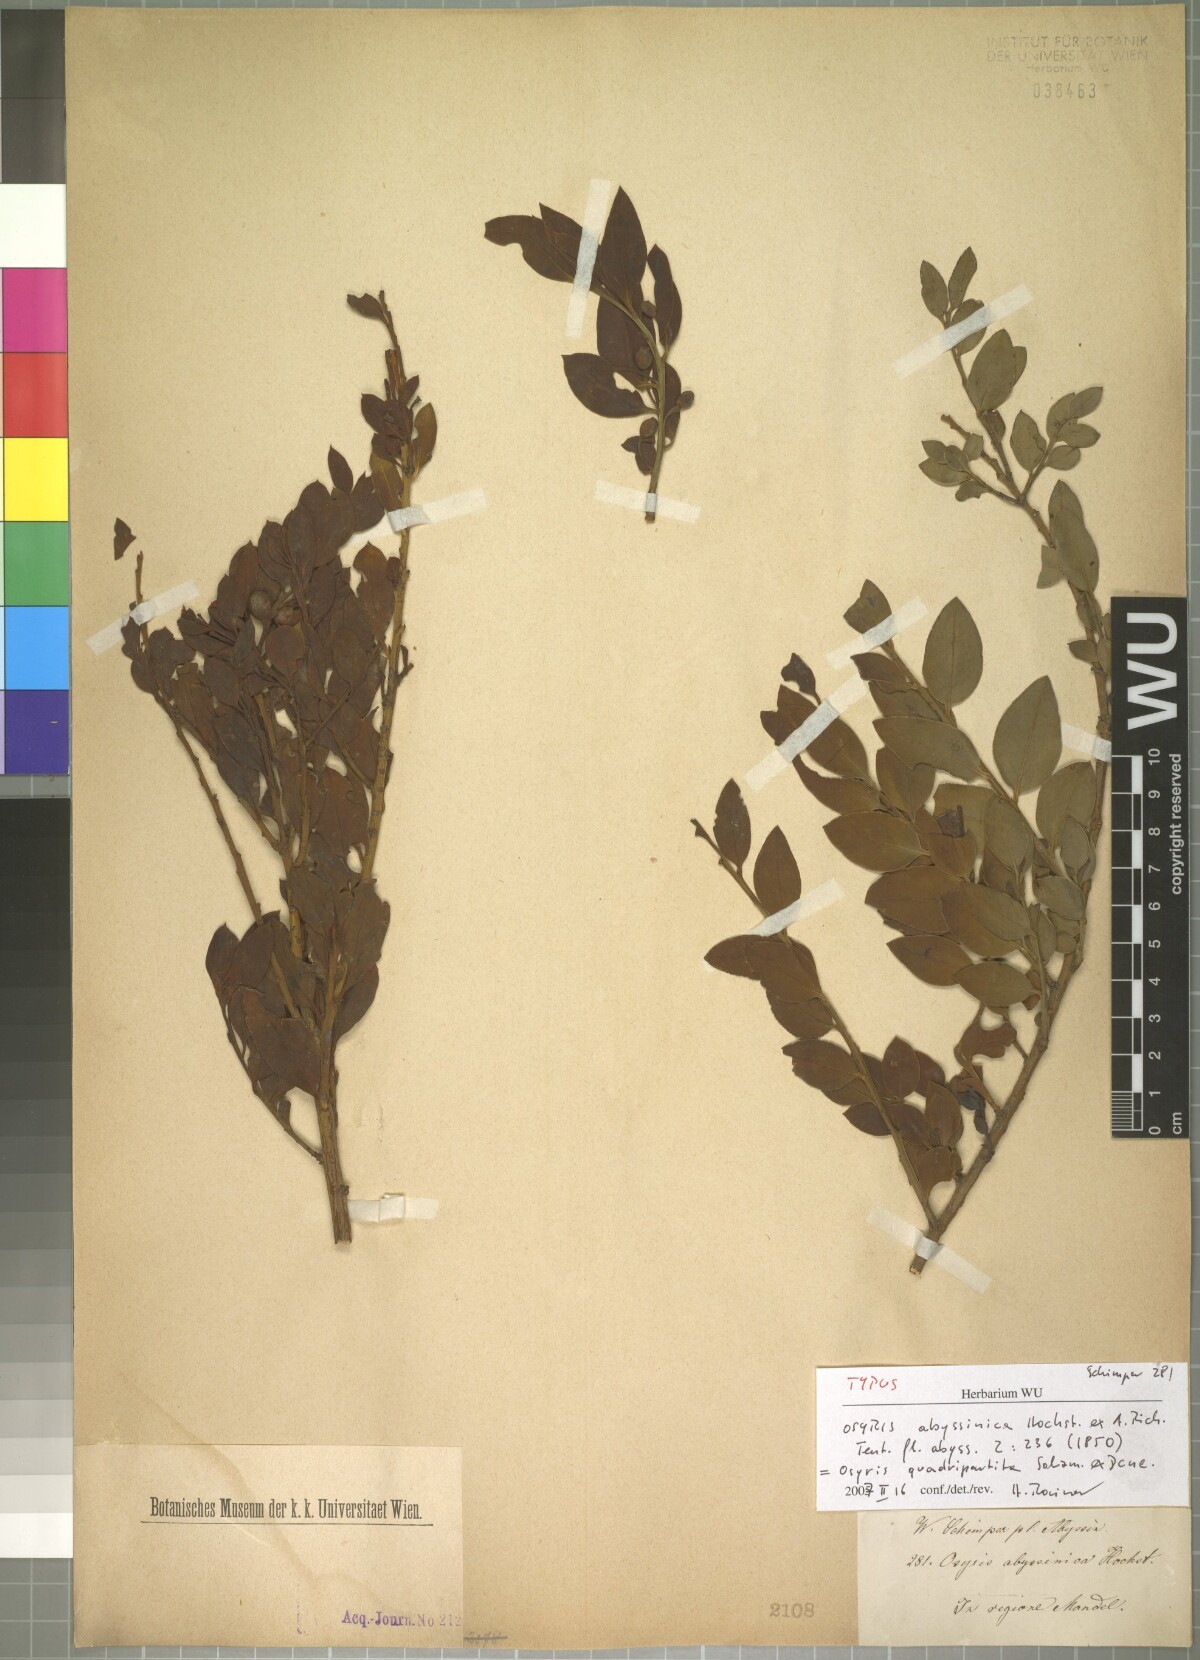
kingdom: Plantae
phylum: Tracheophyta
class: Magnoliopsida
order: Santalales
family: Santalaceae
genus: Osyris
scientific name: Osyris quadripartita
